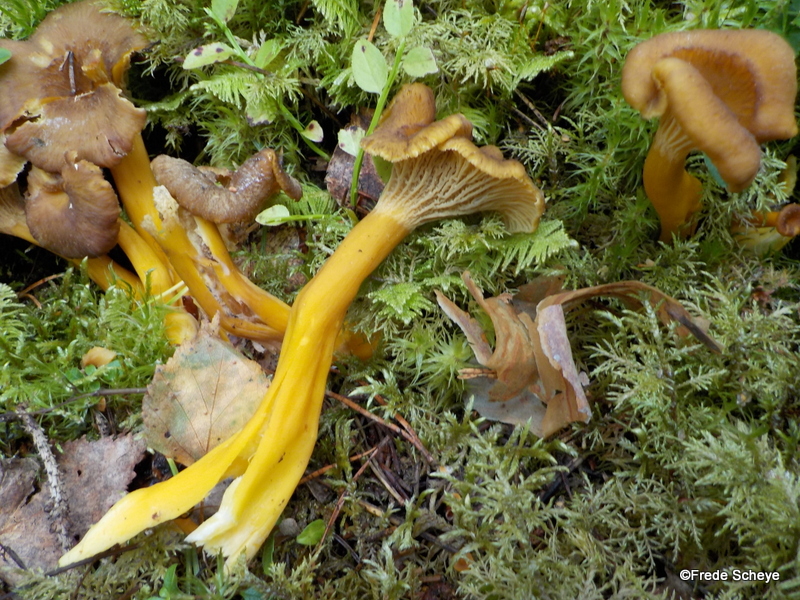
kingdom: Fungi
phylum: Basidiomycota
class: Agaricomycetes
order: Cantharellales
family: Hydnaceae
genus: Craterellus
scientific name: Craterellus tubaeformis
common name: tragt-kantarel
